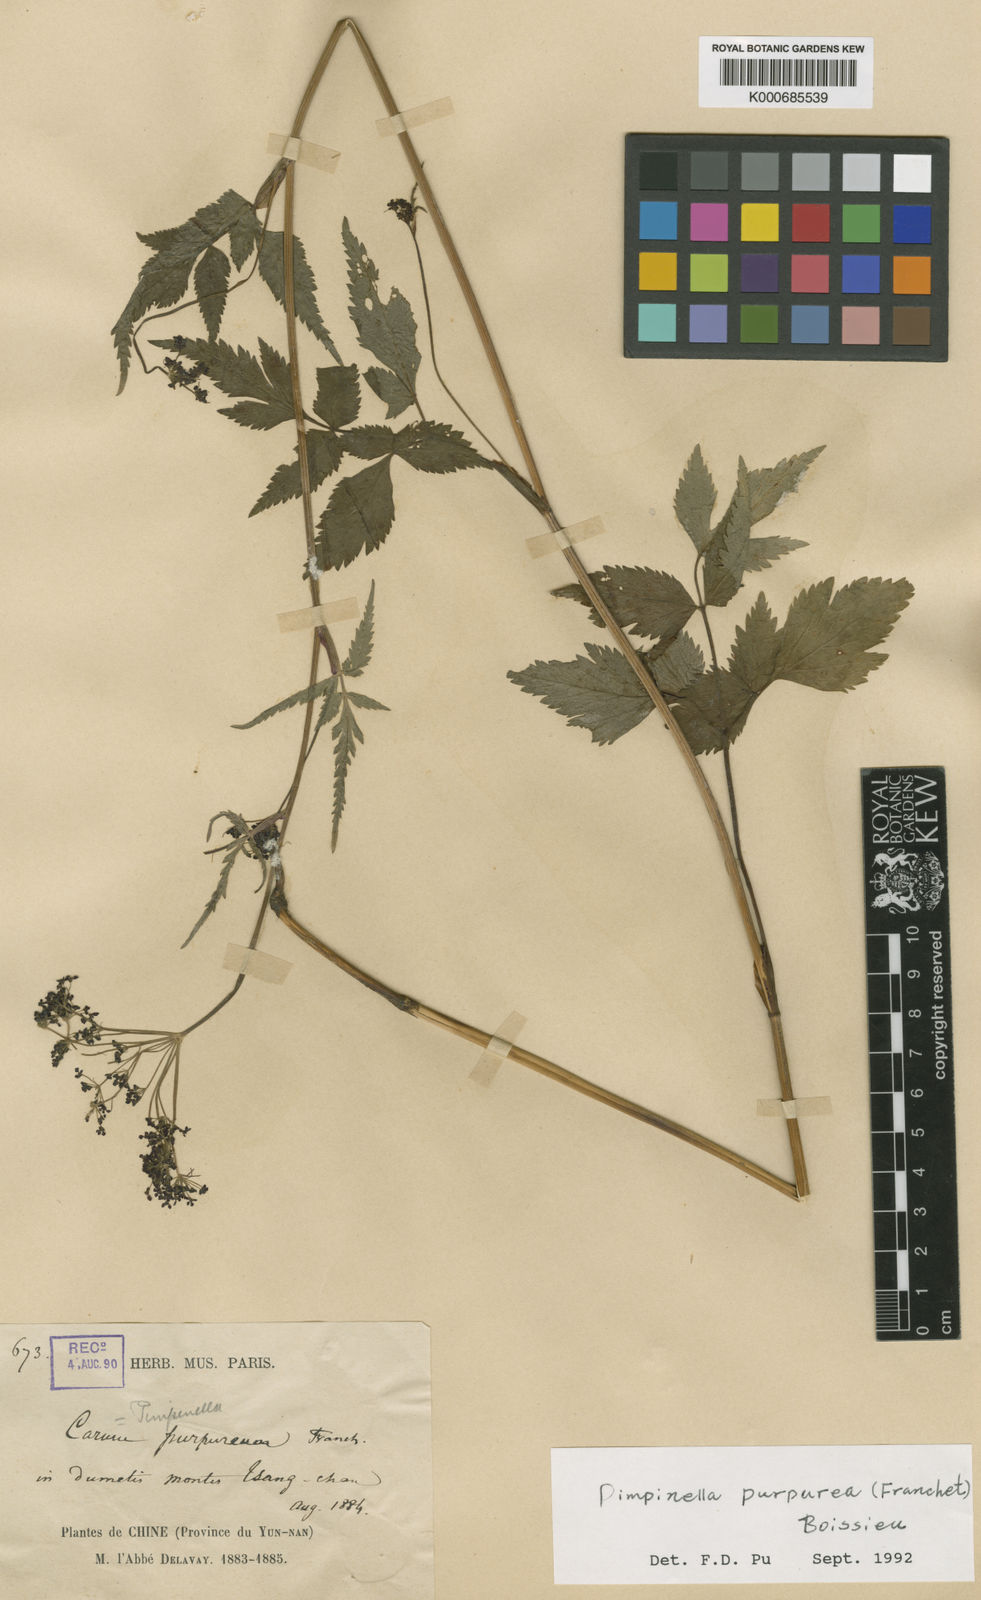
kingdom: Plantae
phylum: Tracheophyta
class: Magnoliopsida
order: Apiales
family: Apiaceae
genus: Pimpinella
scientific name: Pimpinella purpurea
